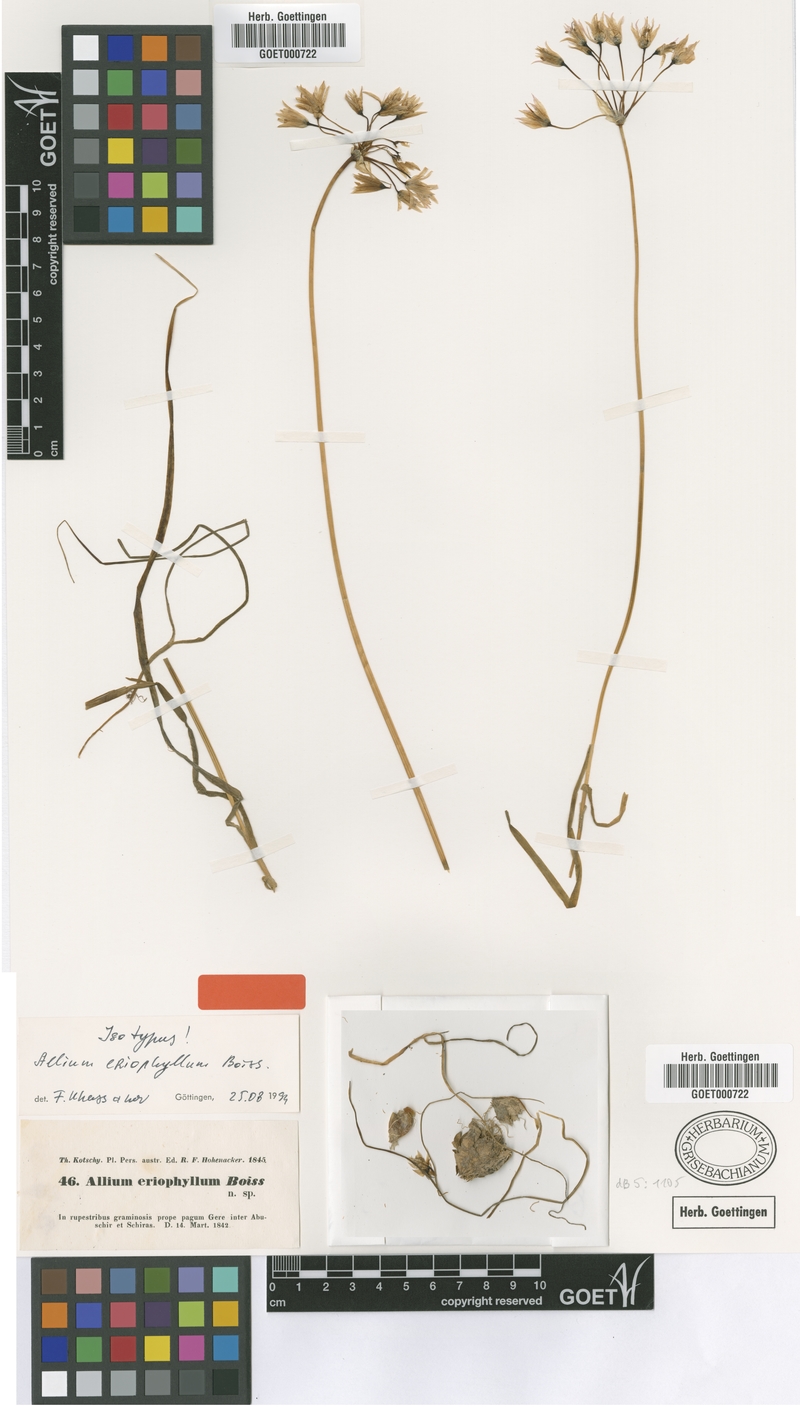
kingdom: Plantae
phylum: Tracheophyta
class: Liliopsida
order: Asparagales
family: Amaryllidaceae
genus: Allium
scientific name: Allium longisepalum
